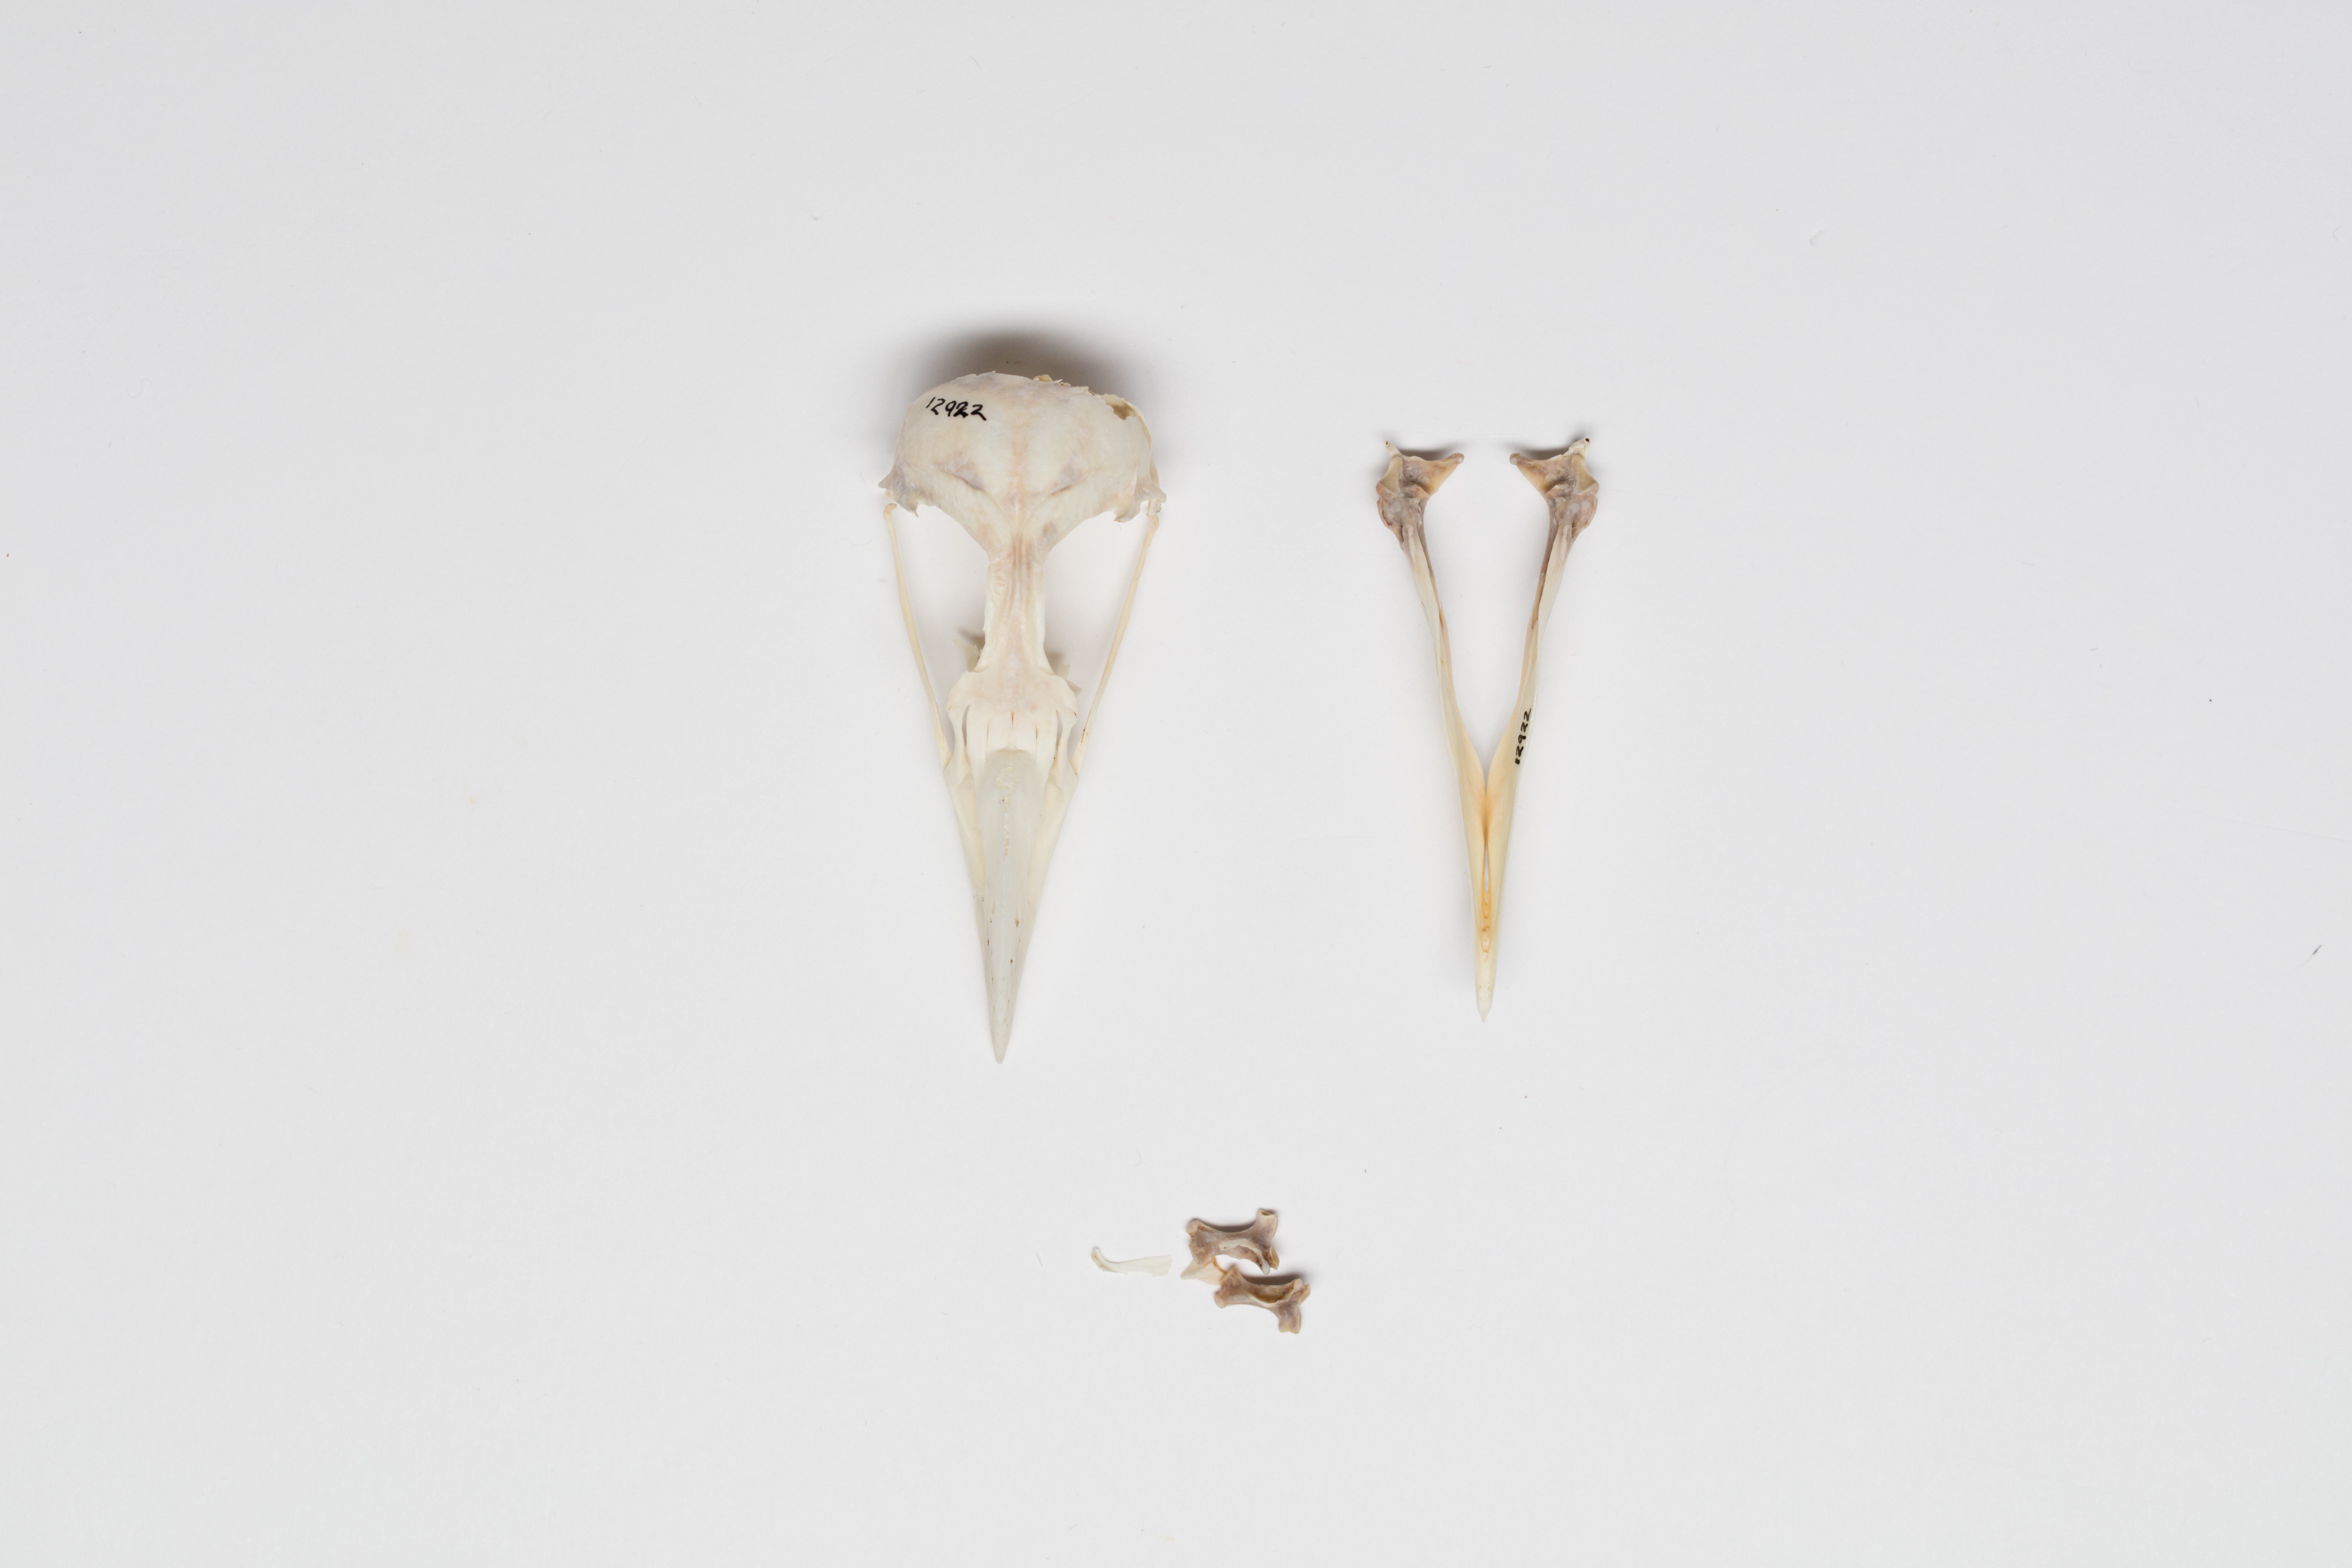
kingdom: Animalia
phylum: Chordata
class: Aves
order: Charadriiformes
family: Alcidae
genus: Fratercula
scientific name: Fratercula arctica
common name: Atlantic puffin
